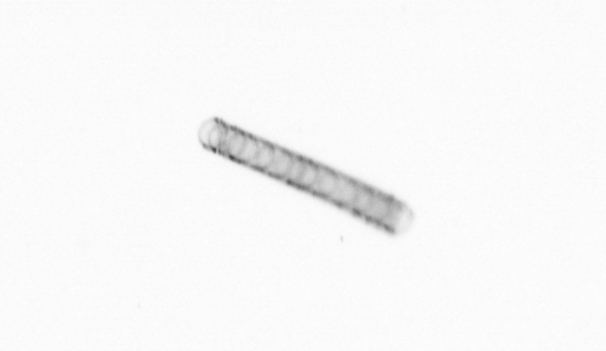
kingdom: Chromista
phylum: Ochrophyta
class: Bacillariophyceae
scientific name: Bacillariophyceae
